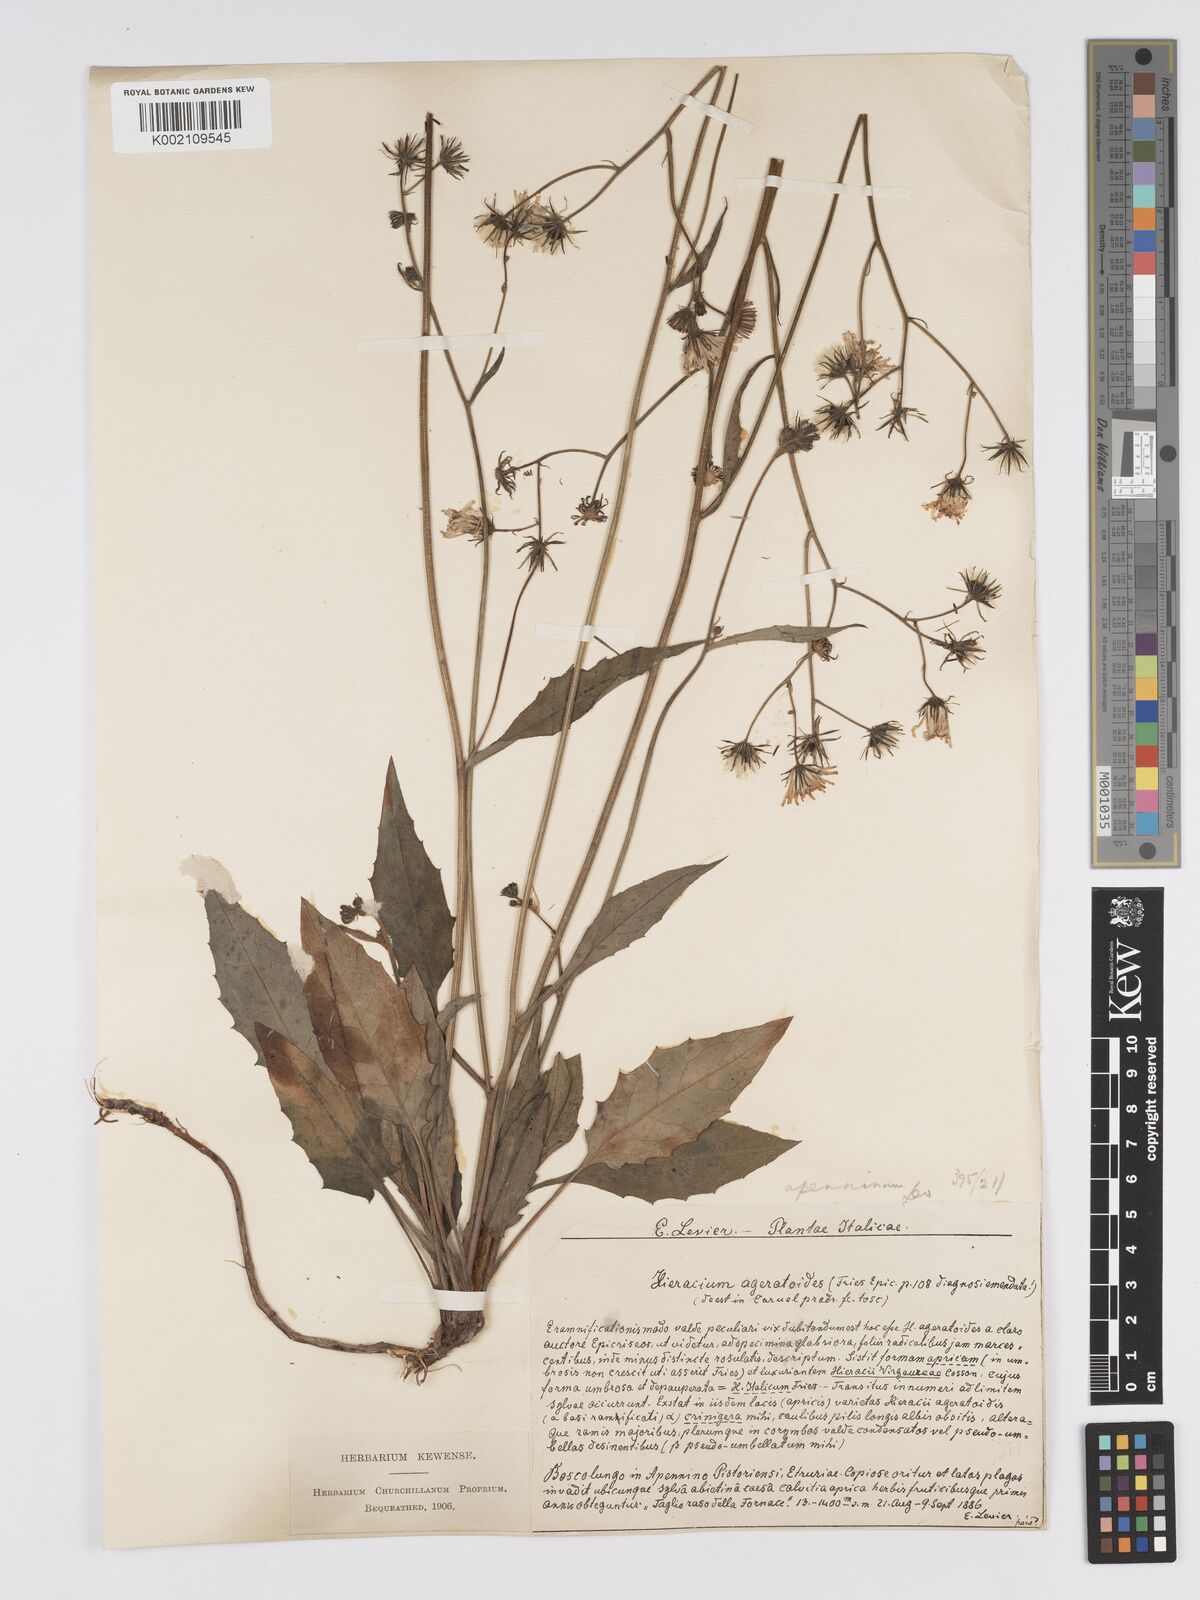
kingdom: Plantae
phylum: Tracheophyta
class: Magnoliopsida
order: Asterales
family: Asteraceae
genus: Hieracium
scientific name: Hieracium racemosum
